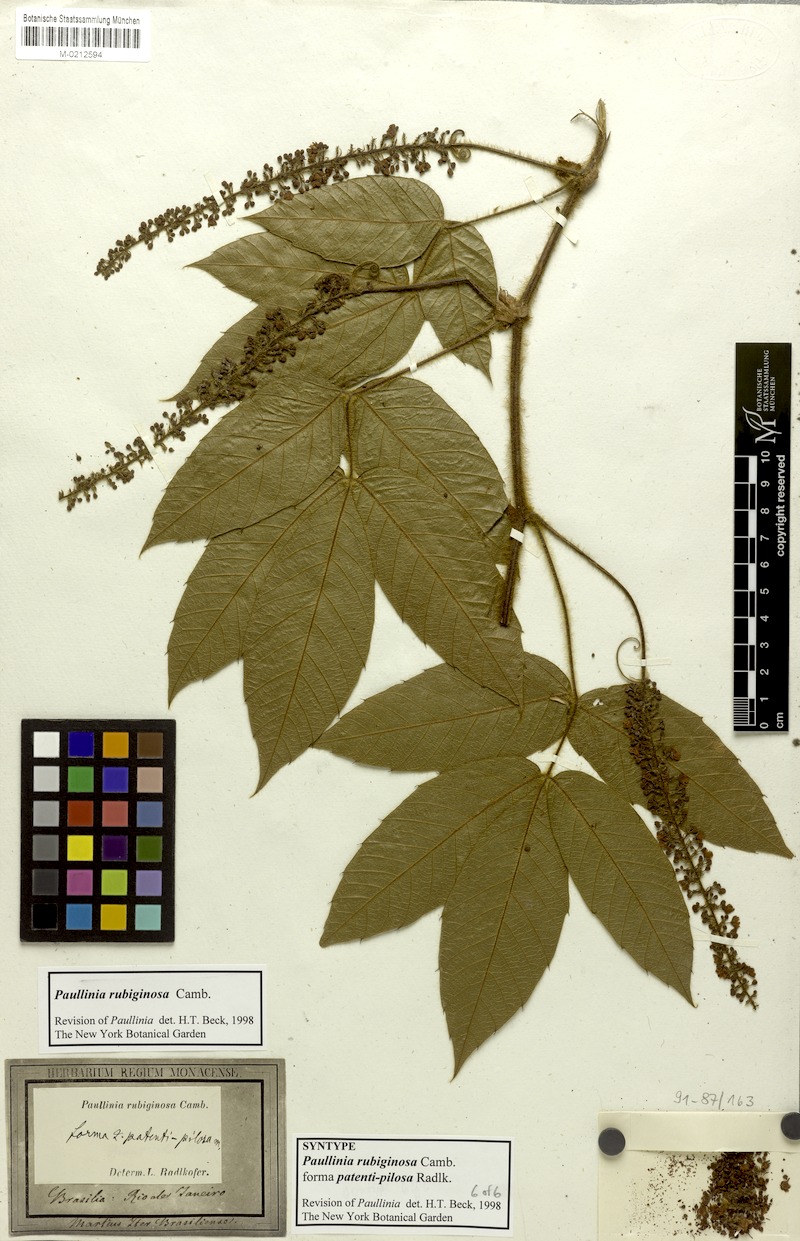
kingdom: Plantae
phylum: Tracheophyta
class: Magnoliopsida
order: Sapindales
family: Sapindaceae
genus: Paullinia
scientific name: Paullinia rubiginosa
